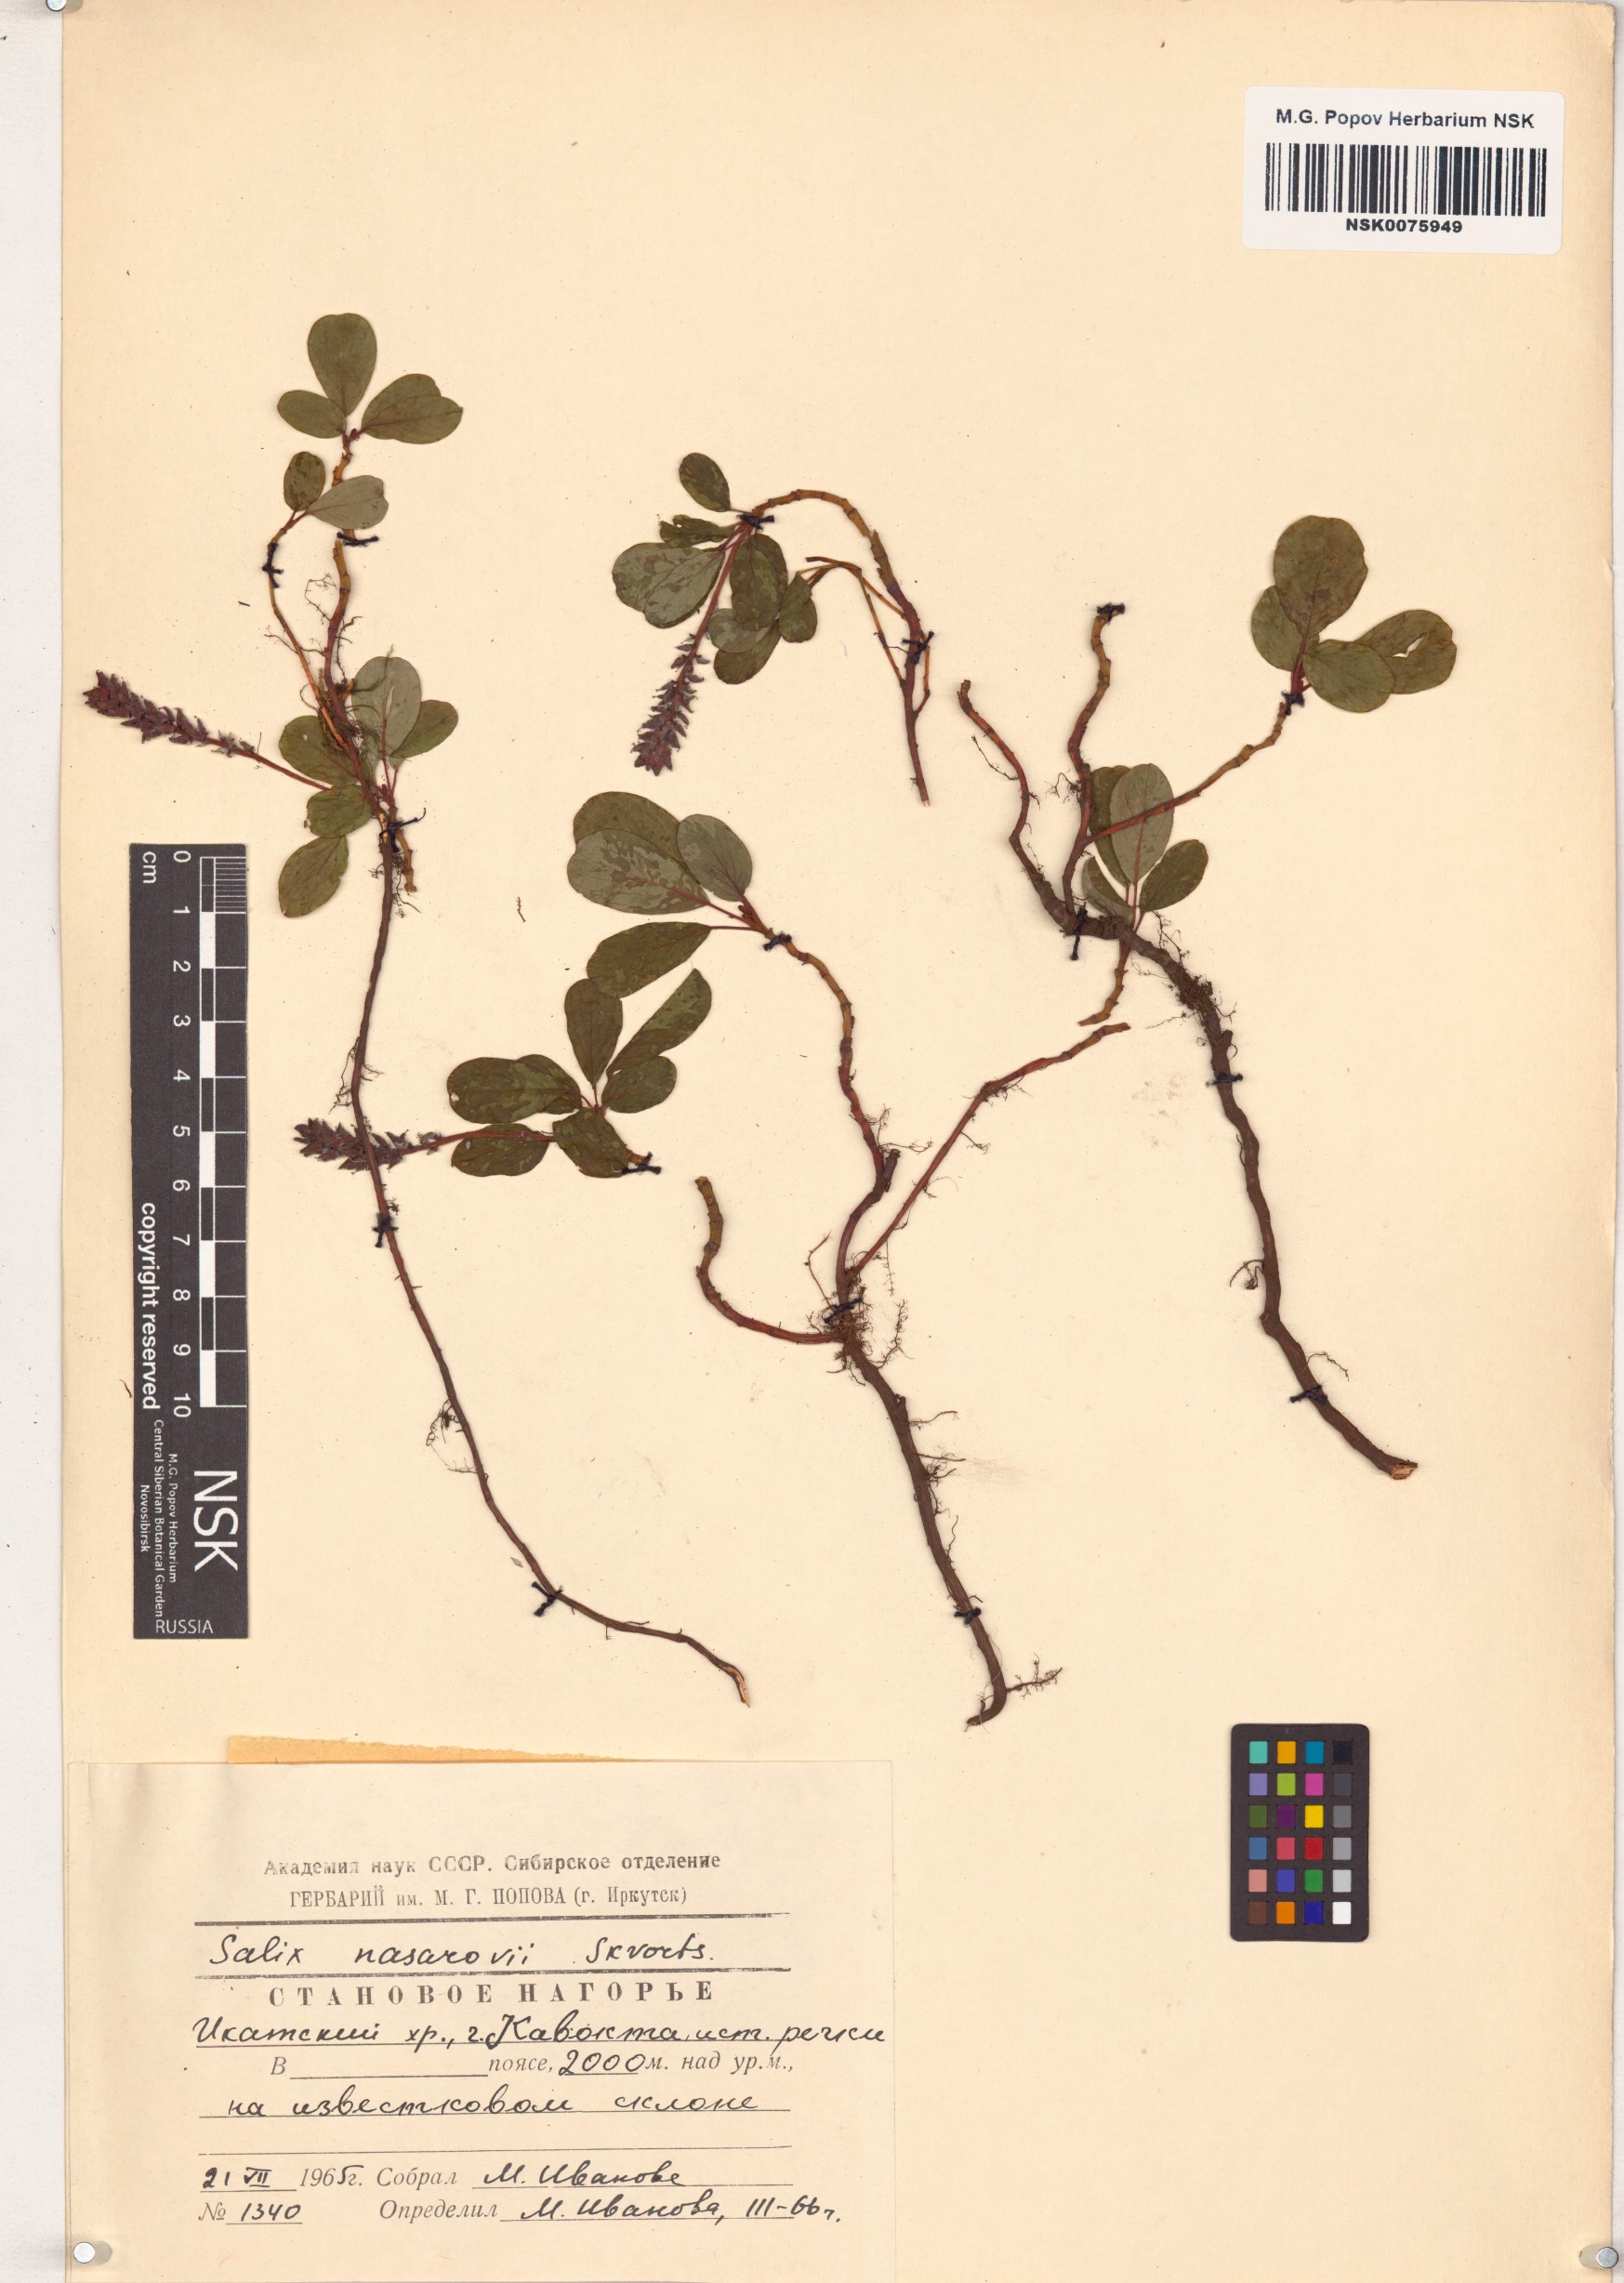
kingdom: Plantae
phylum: Tracheophyta
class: Magnoliopsida
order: Malpighiales
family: Salicaceae
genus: Salix
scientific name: Salix nasarovii
